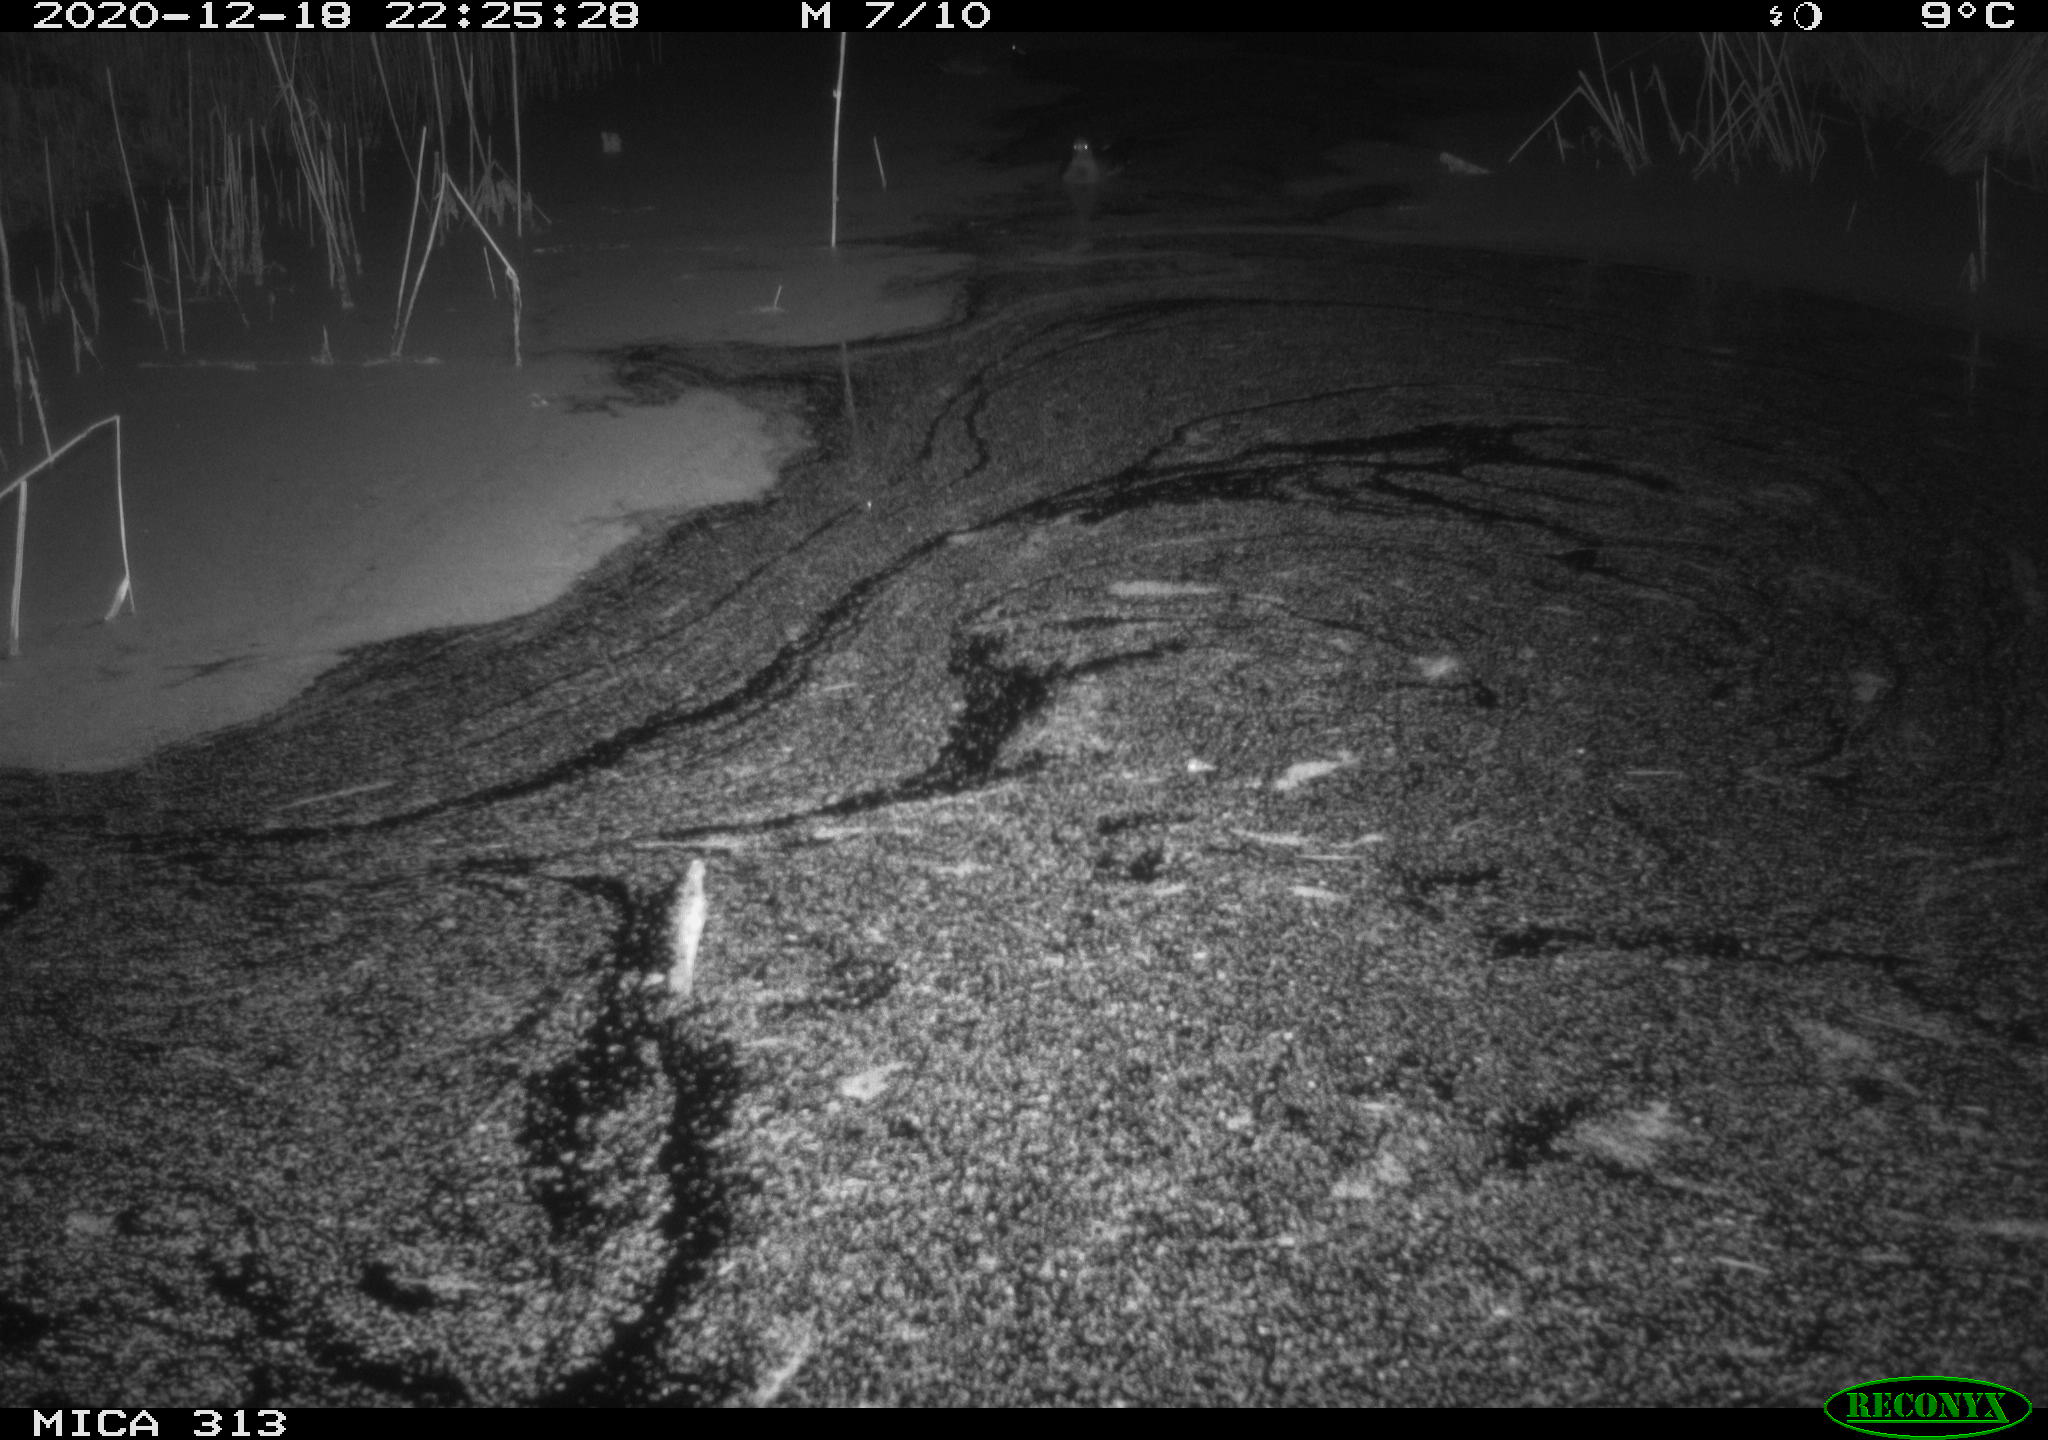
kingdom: Animalia
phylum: Chordata
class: Aves
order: Gruiformes
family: Rallidae
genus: Gallinula
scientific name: Gallinula chloropus
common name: Common moorhen
